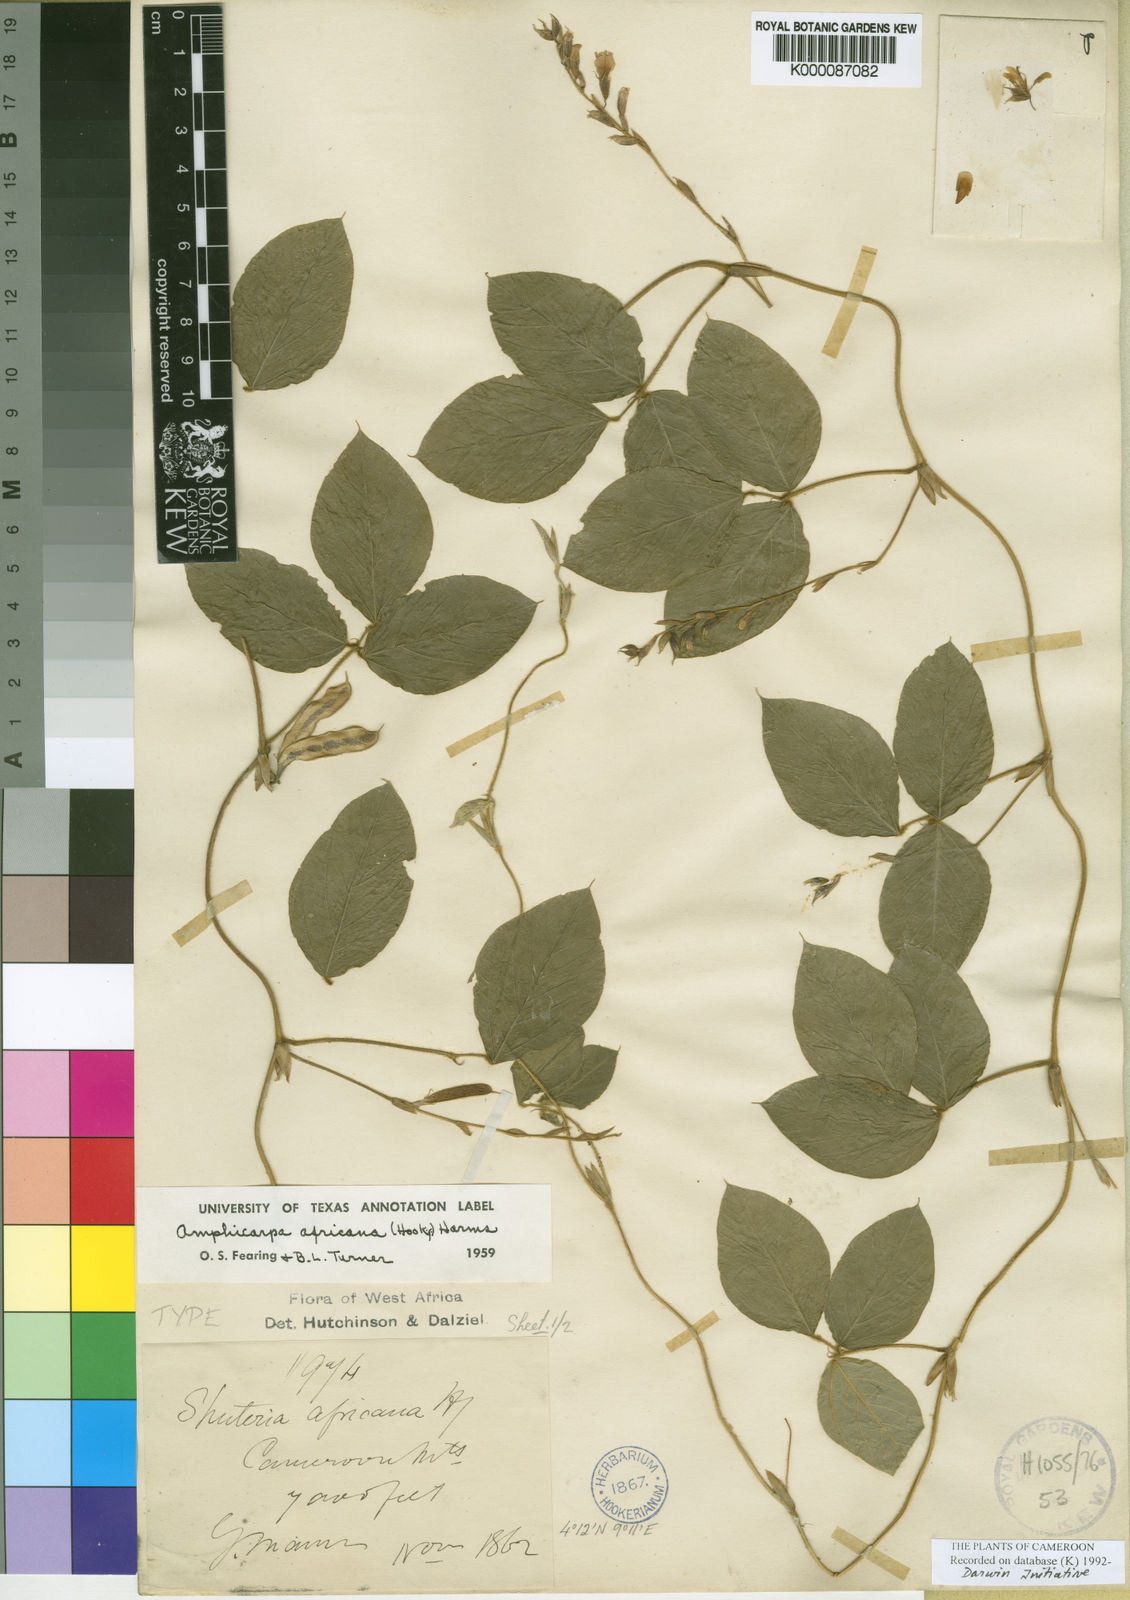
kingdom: Plantae
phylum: Tracheophyta
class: Magnoliopsida
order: Fabales
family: Fabaceae
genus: Afroamphica
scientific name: Afroamphica africana
